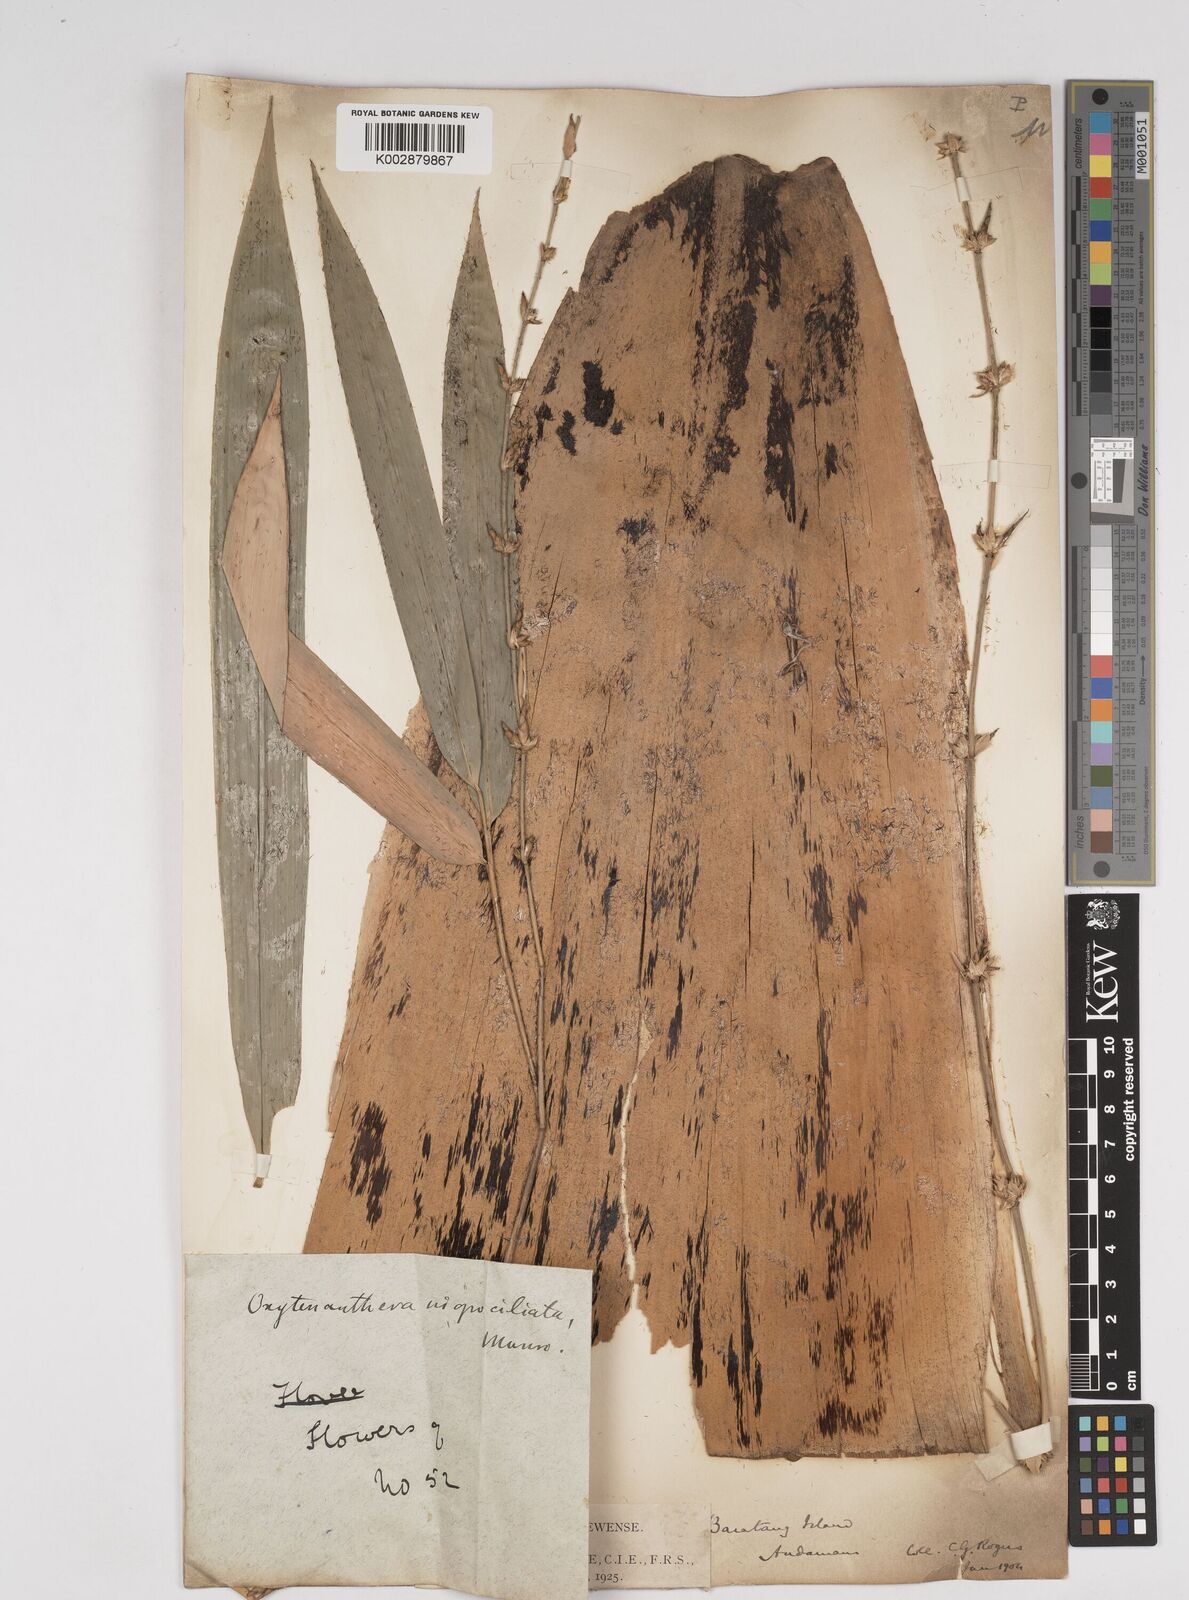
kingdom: Plantae
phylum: Tracheophyta
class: Liliopsida
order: Poales
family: Poaceae
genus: Gigantochloa
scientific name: Gigantochloa
